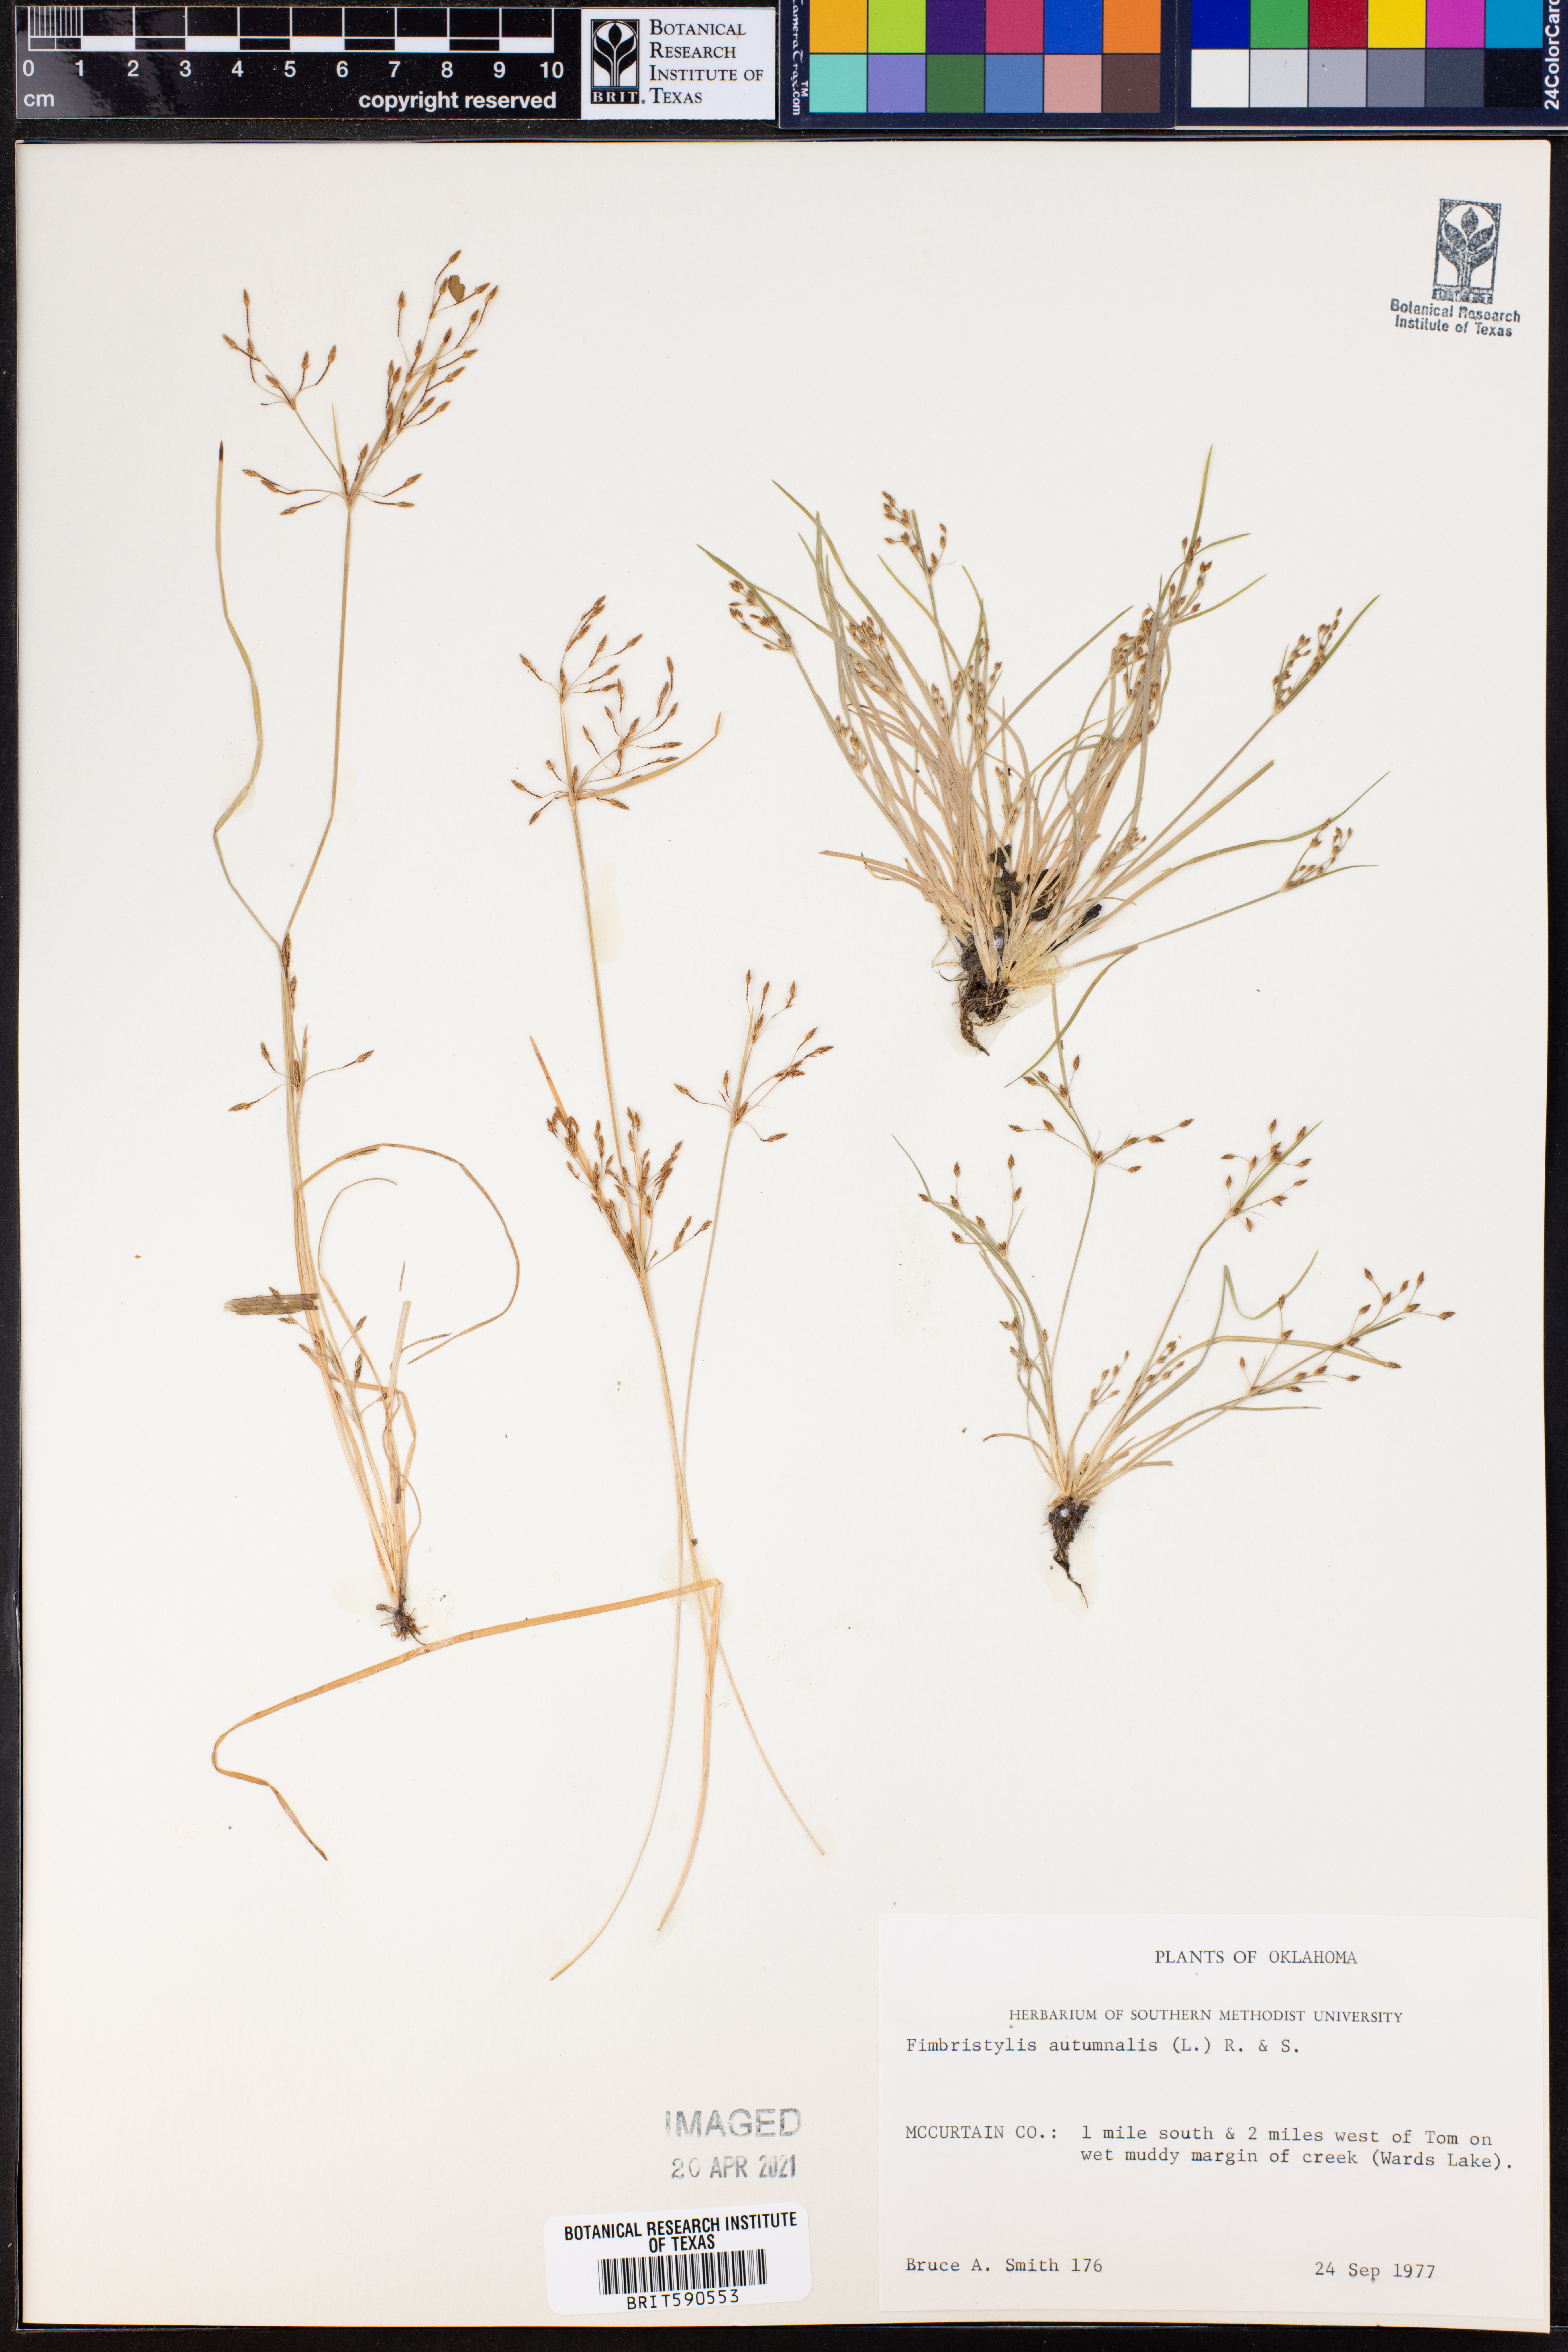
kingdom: Plantae
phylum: Tracheophyta
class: Liliopsida
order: Poales
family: Cyperaceae
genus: Fimbristylis
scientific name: Fimbristylis autumnalis
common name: Slender fimbristylis
